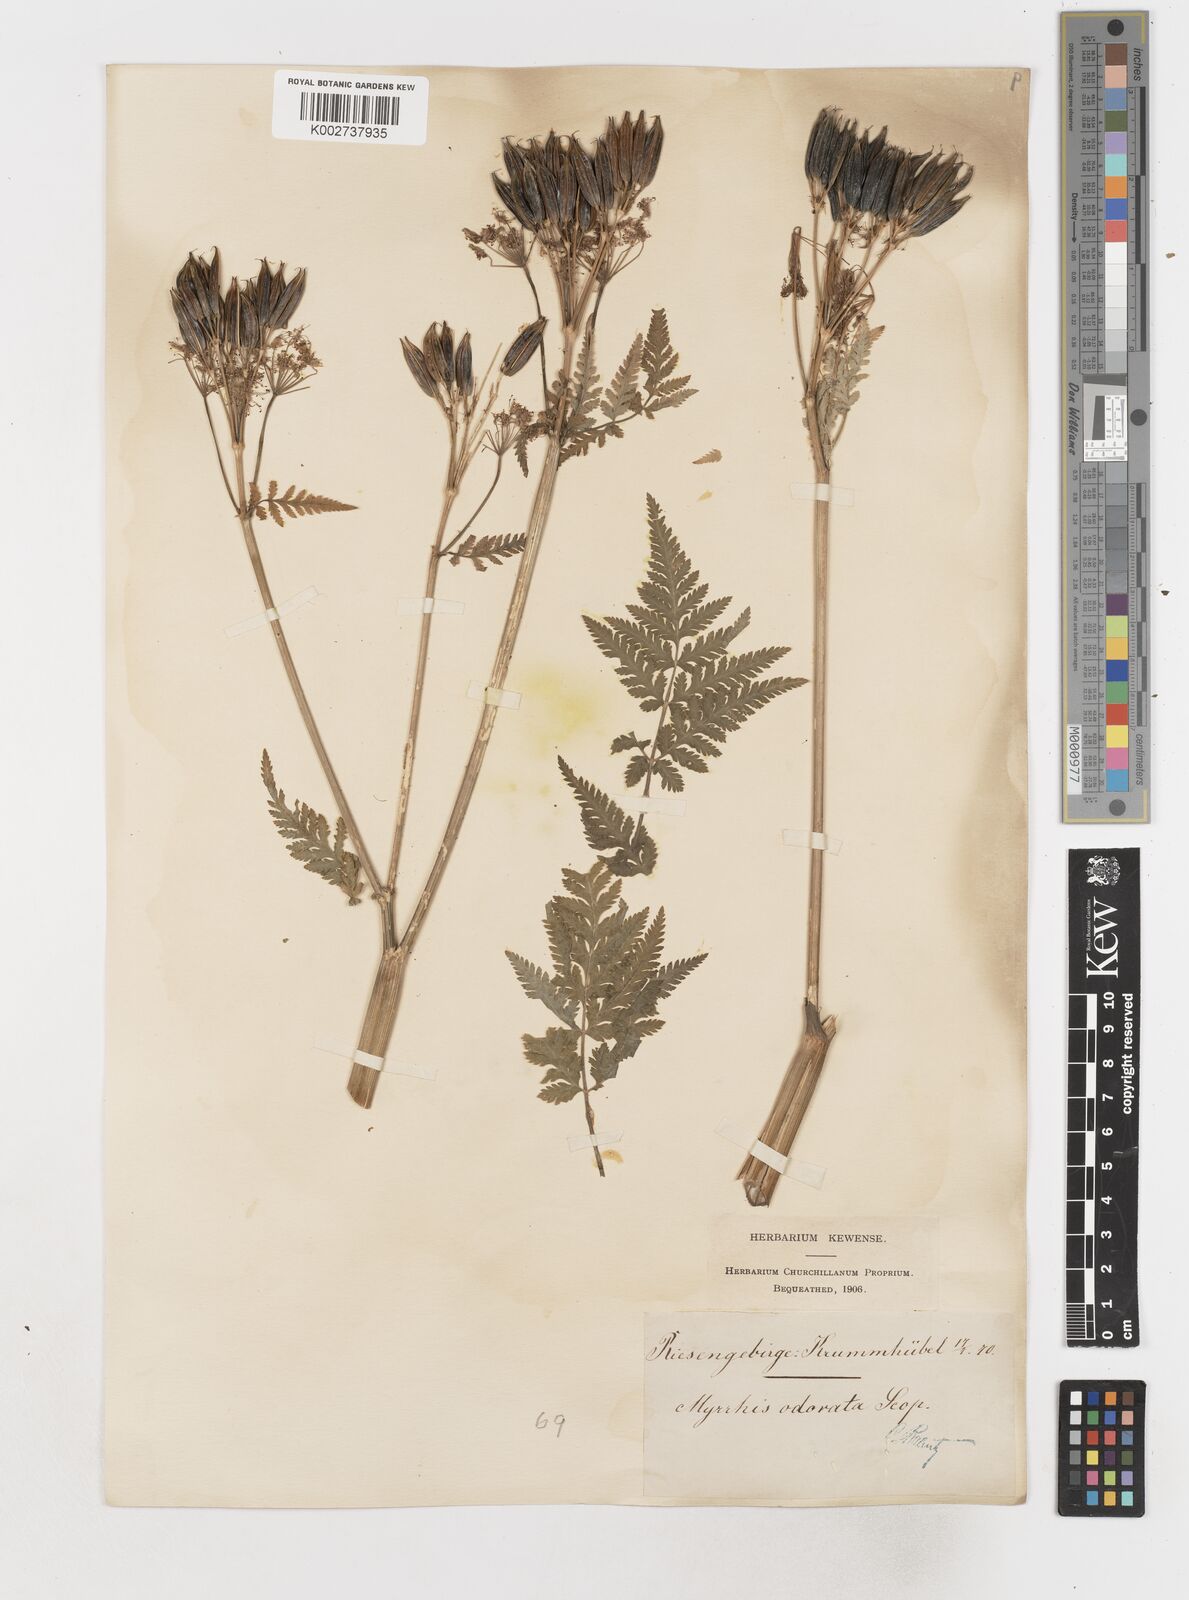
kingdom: Plantae
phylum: Tracheophyta
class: Magnoliopsida
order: Apiales
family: Apiaceae
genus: Myrrhis
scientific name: Myrrhis odorata
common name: Sweet cicely
